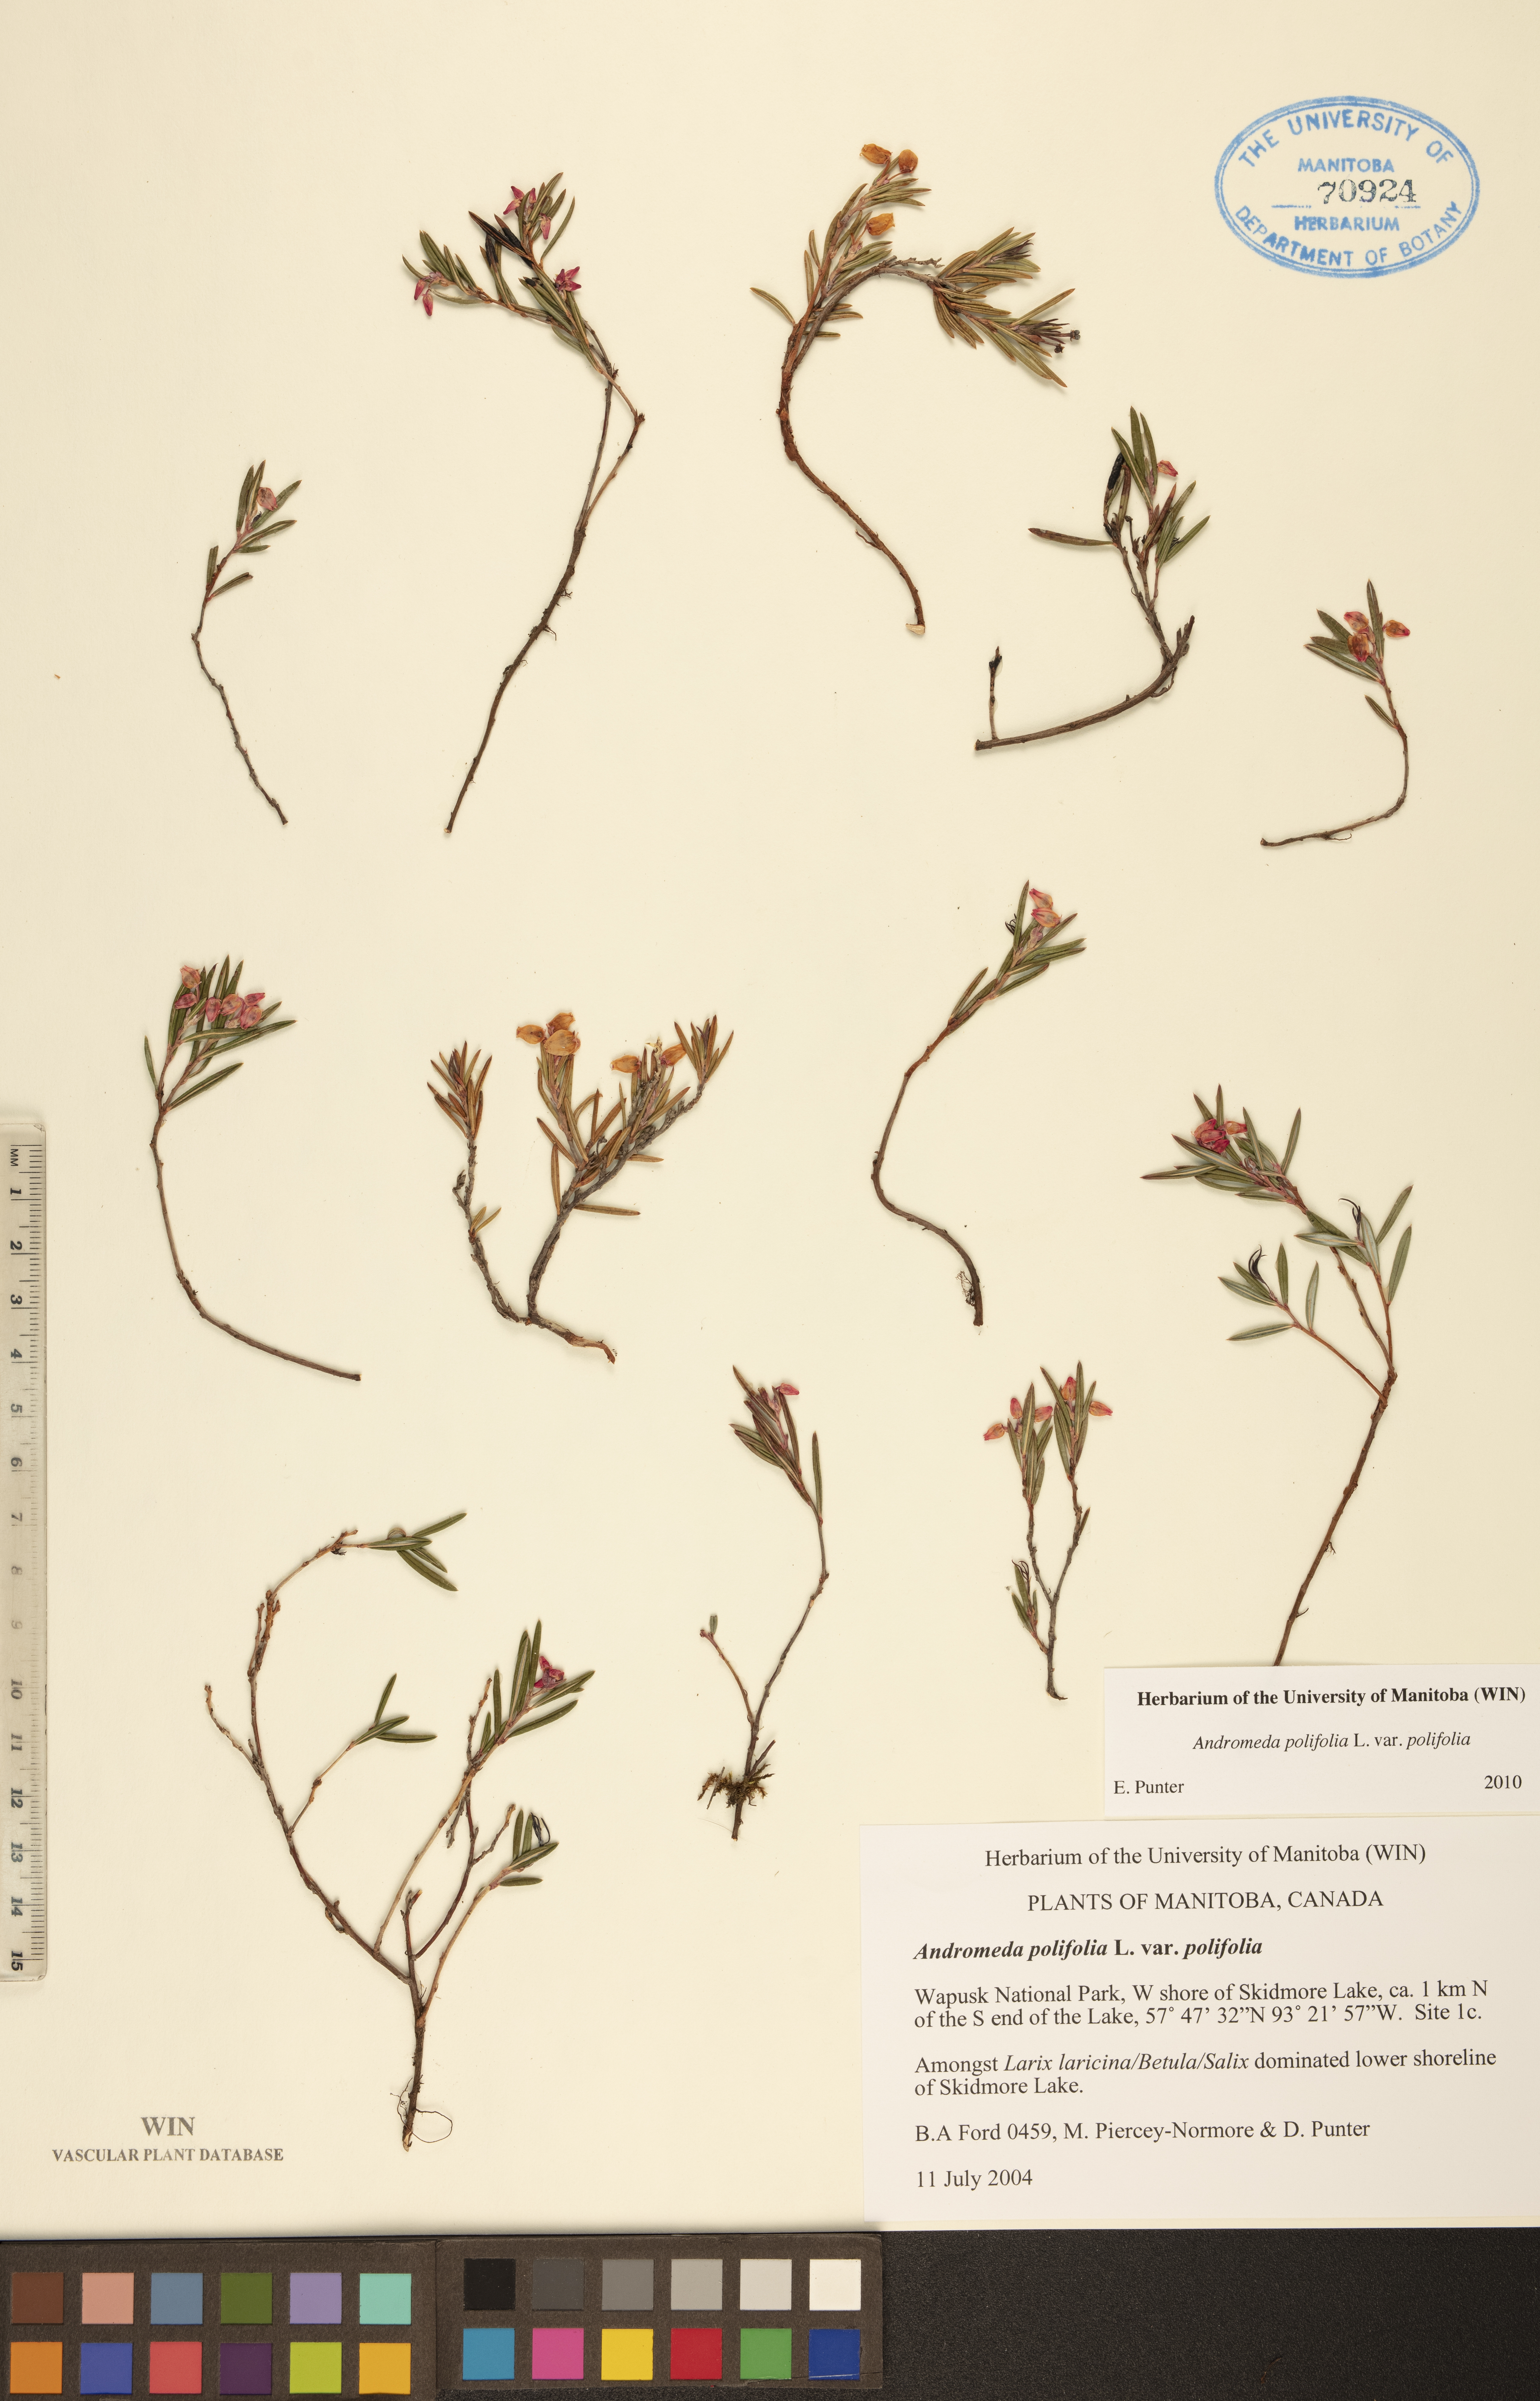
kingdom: Plantae
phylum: Tracheophyta
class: Magnoliopsida
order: Ericales
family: Ericaceae
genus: Andromeda
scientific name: Andromeda polifolia
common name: Bog-rosemary
